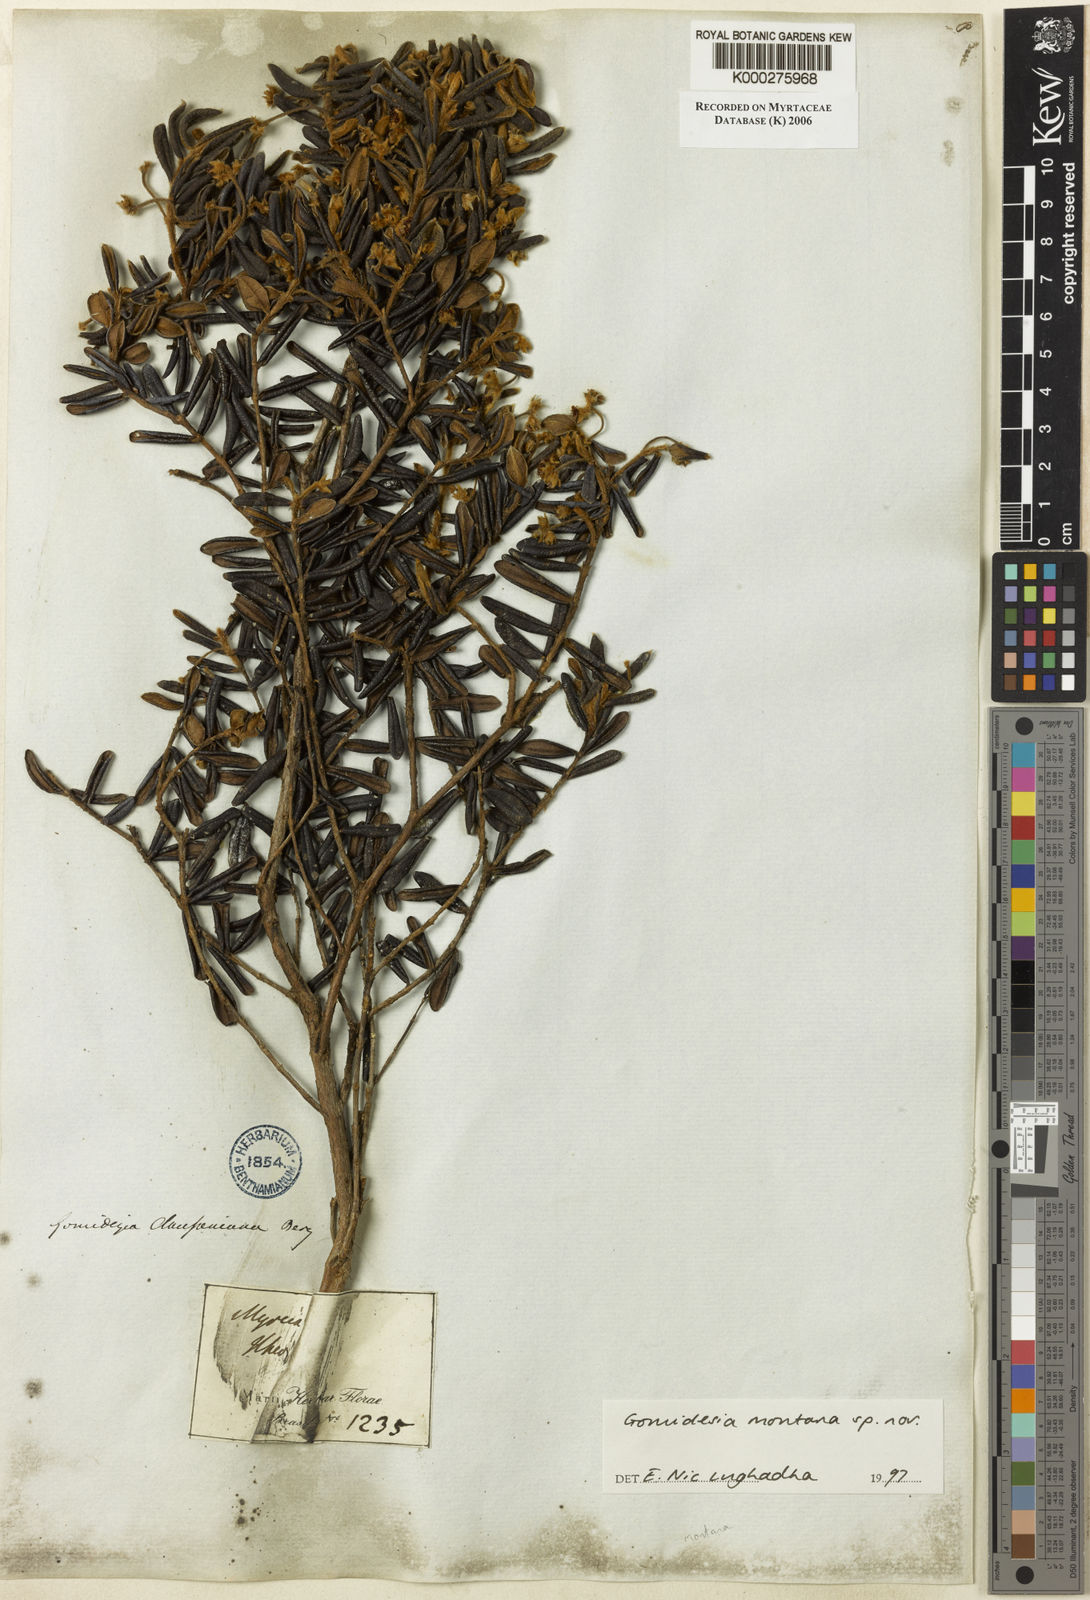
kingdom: Plantae
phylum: Tracheophyta
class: Magnoliopsida
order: Myrtales
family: Myrtaceae
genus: Myrcia
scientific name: Myrcia montana
